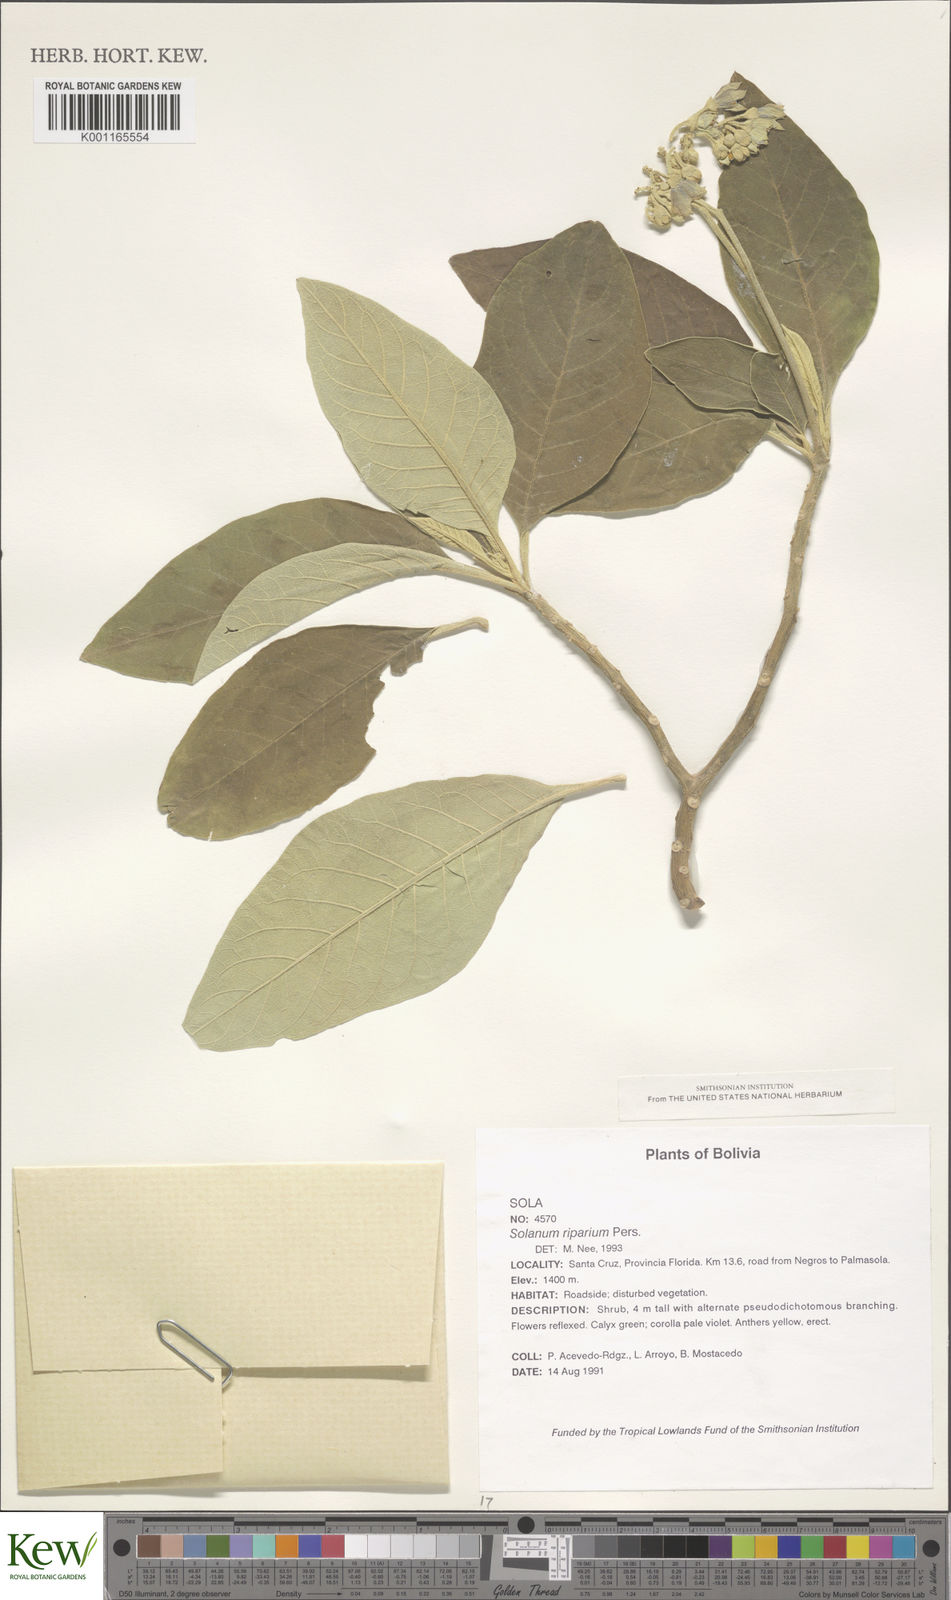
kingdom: Plantae
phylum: Tracheophyta
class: Magnoliopsida
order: Solanales
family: Solanaceae
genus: Solanum
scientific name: Solanum riparium
